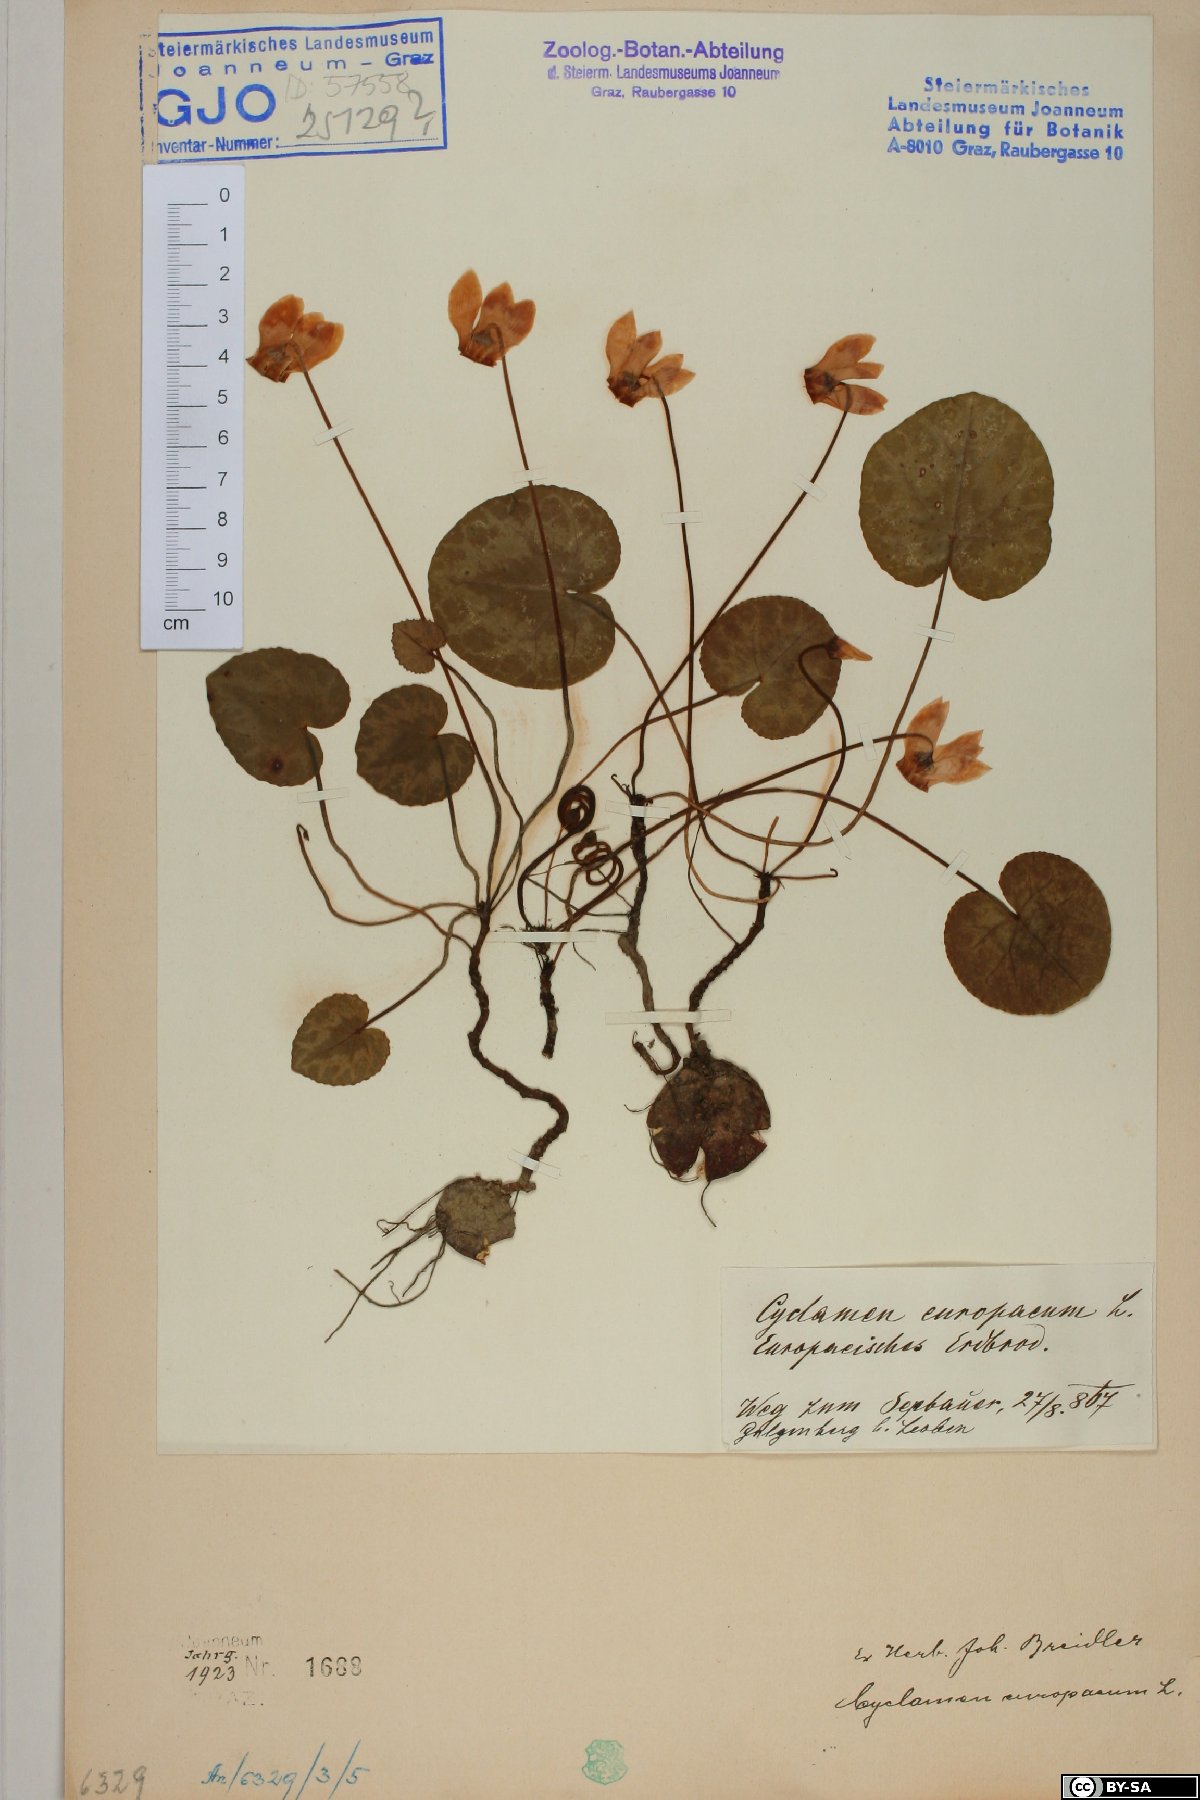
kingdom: Plantae
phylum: Tracheophyta
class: Magnoliopsida
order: Ericales
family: Primulaceae
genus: Cyclamen
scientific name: Cyclamen purpurascens
